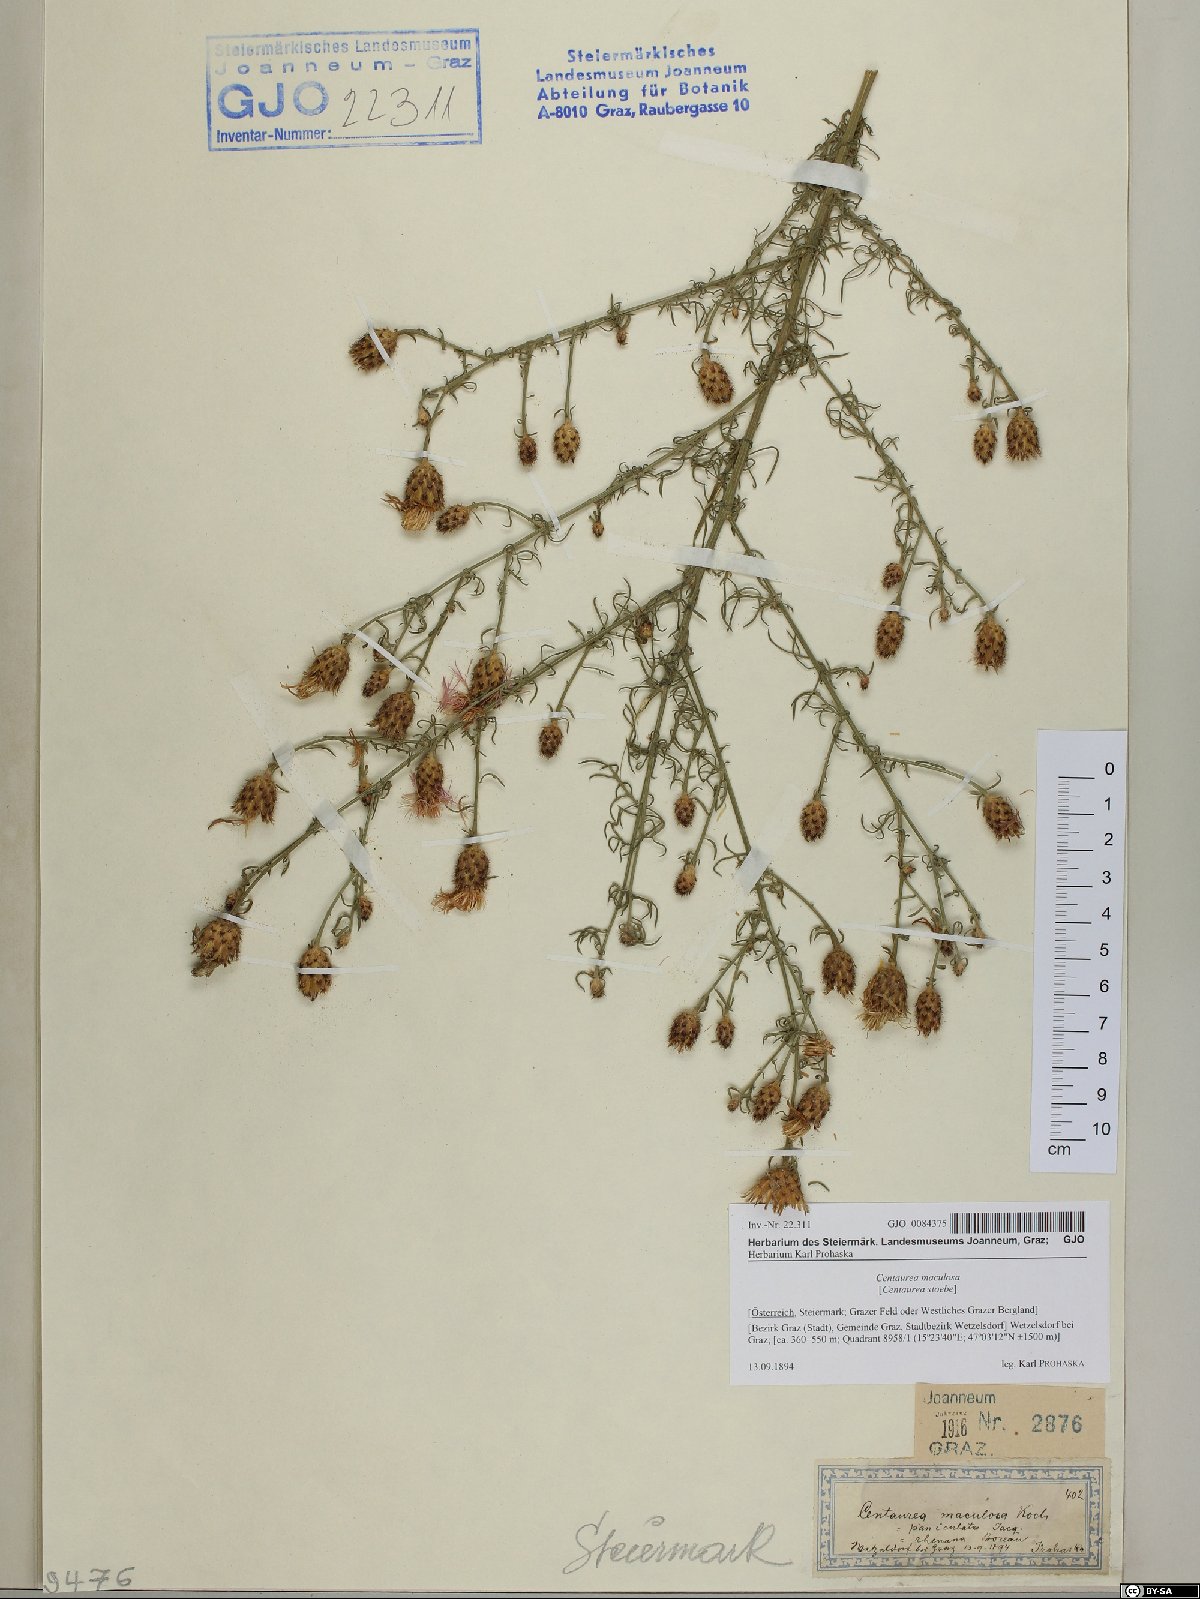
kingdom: Plantae
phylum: Tracheophyta
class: Magnoliopsida
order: Asterales
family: Asteraceae
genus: Centaurea
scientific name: Centaurea stoebe
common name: Spotted knapweed
